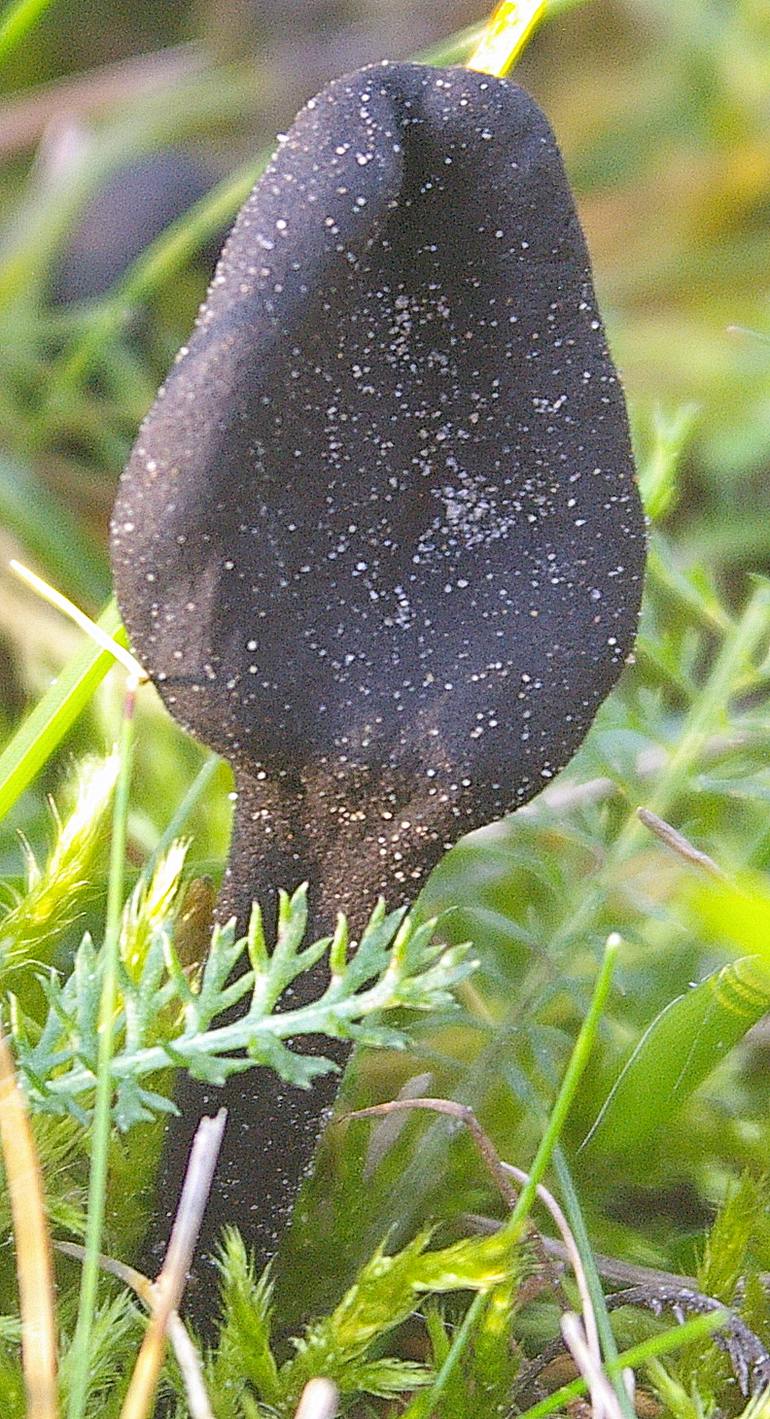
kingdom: Fungi
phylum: Ascomycota
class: Geoglossomycetes
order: Geoglossales
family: Geoglossaceae
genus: Trichoglossum
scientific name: Trichoglossum hirsutum
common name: håret jordtunge
